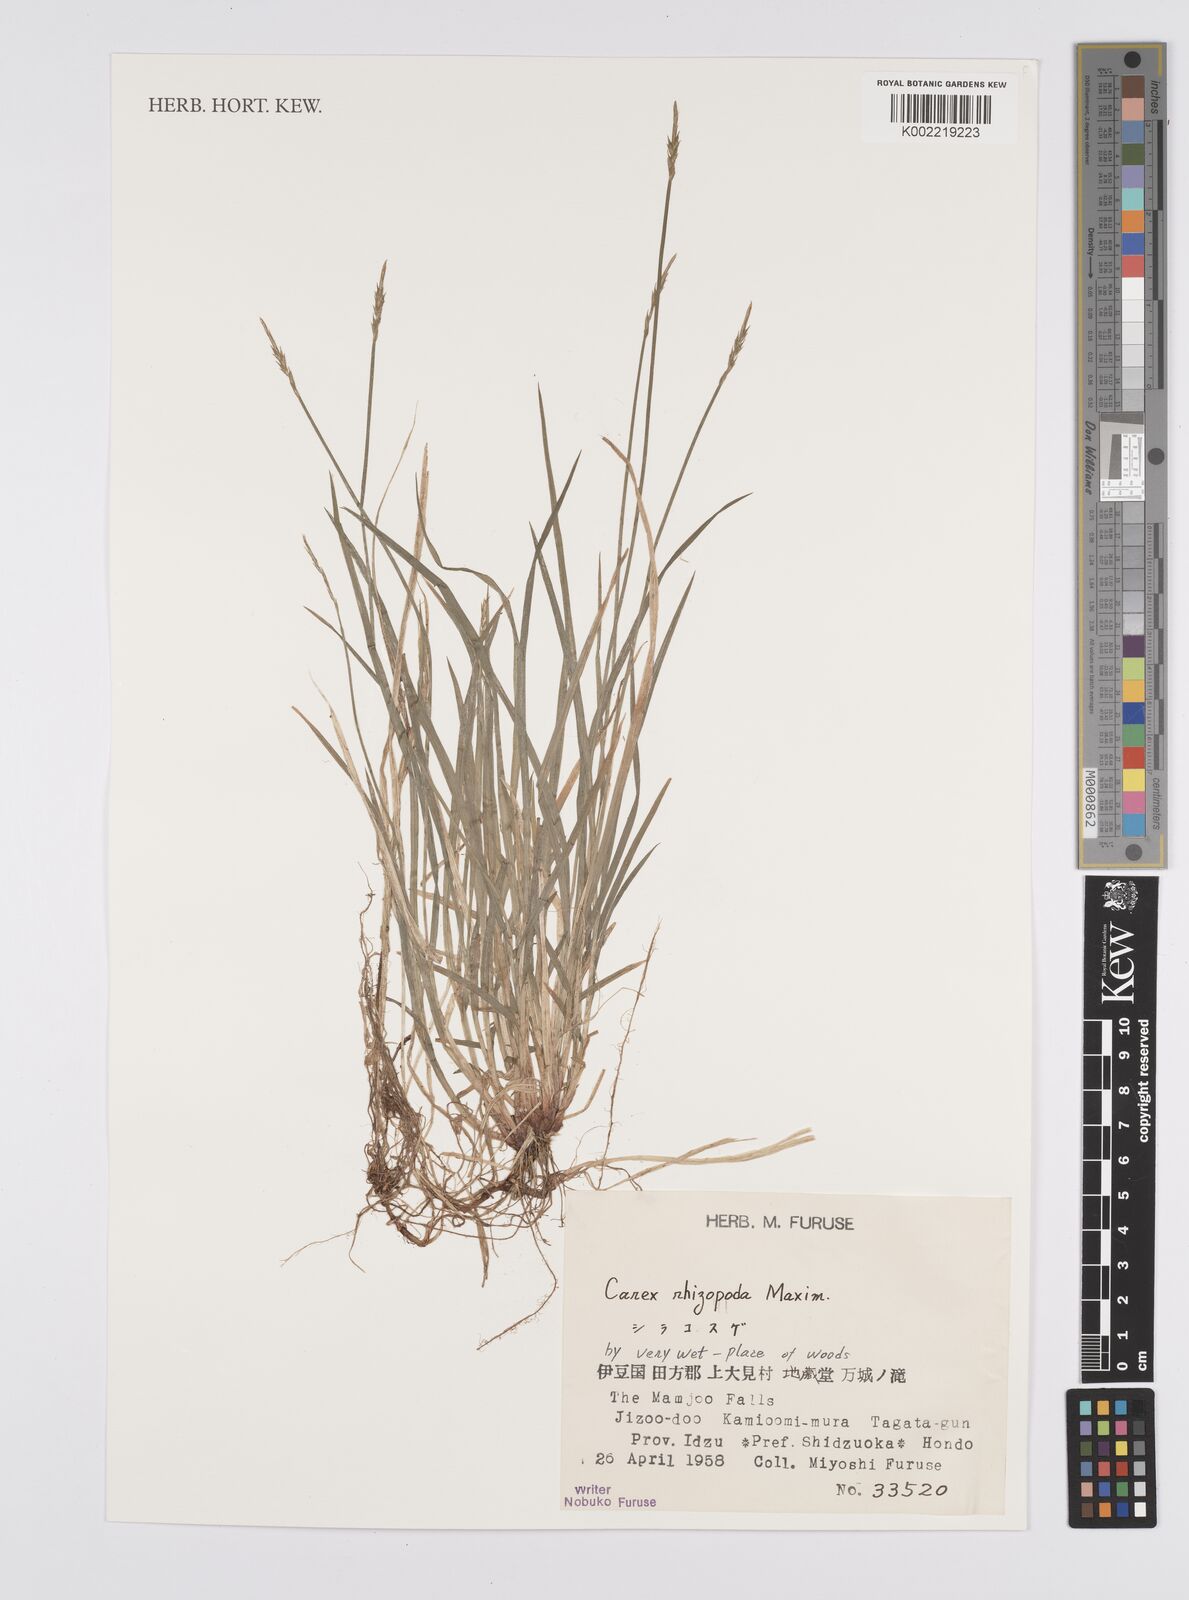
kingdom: Plantae
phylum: Tracheophyta
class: Liliopsida
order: Poales
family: Cyperaceae
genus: Carex
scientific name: Carex rhizopoda
